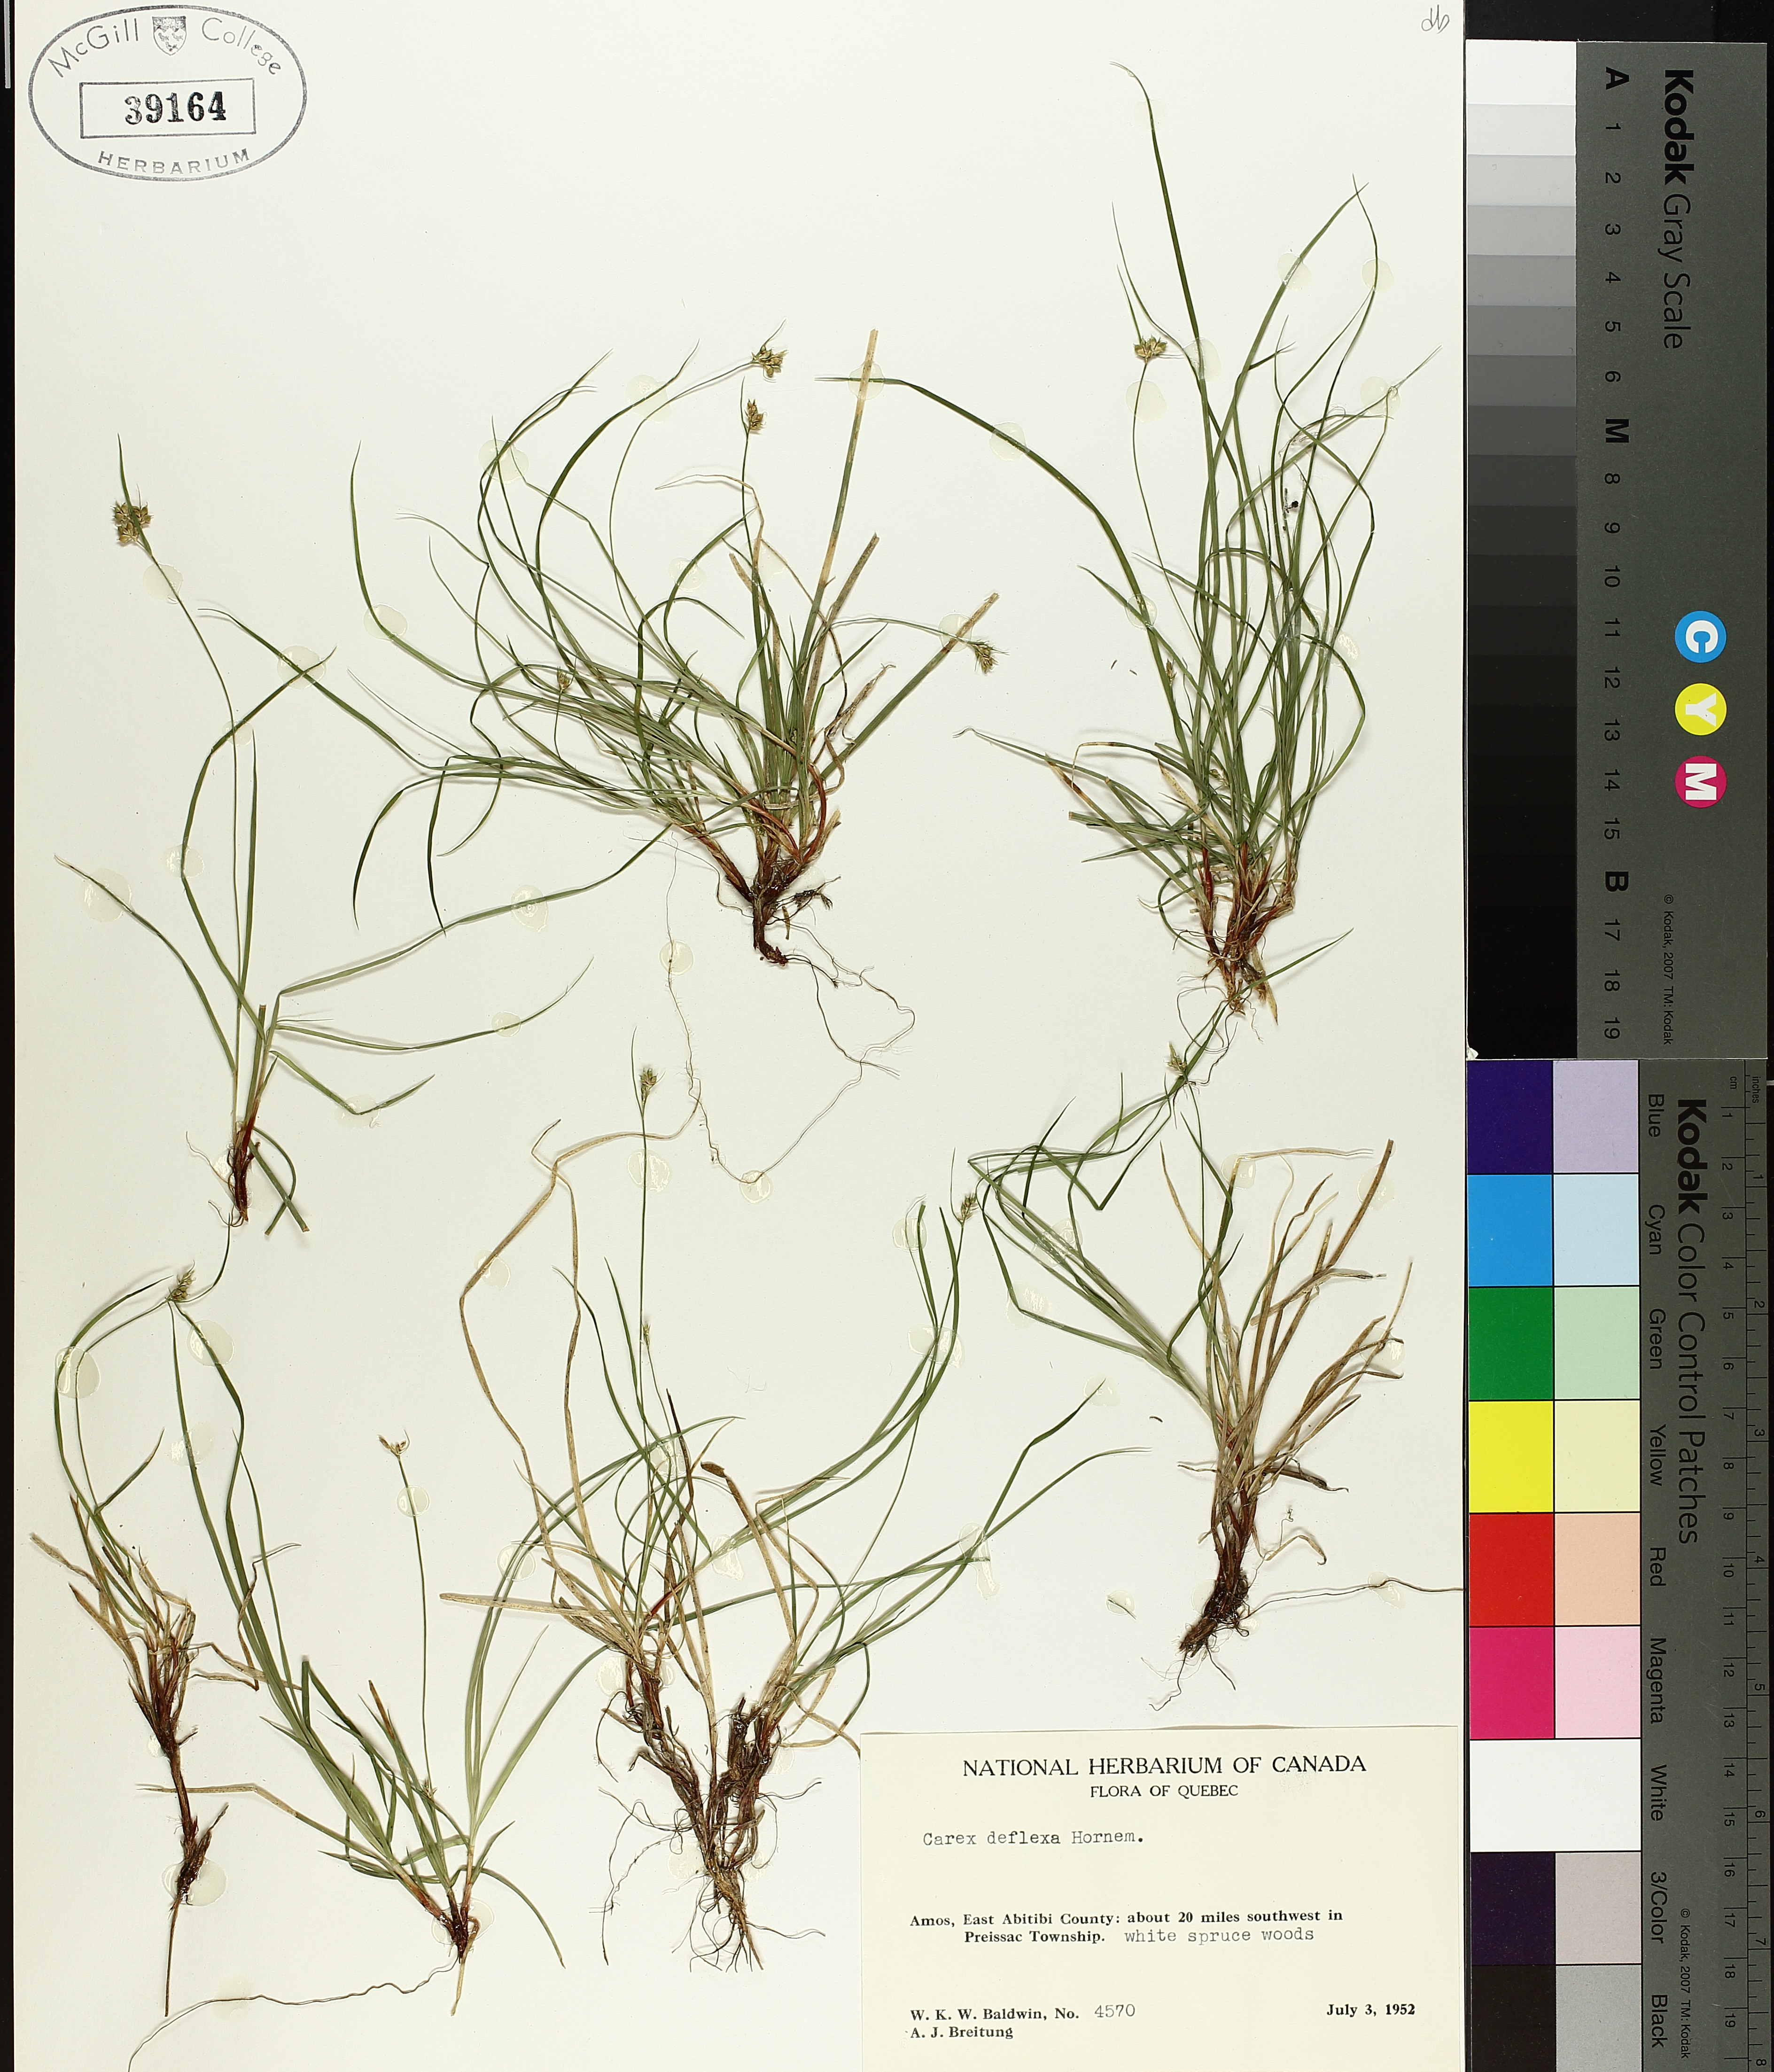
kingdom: Plantae
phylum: Tracheophyta
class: Liliopsida
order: Poales
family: Cyperaceae
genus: Carex
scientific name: Carex deflexa
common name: Bent northern sedge
